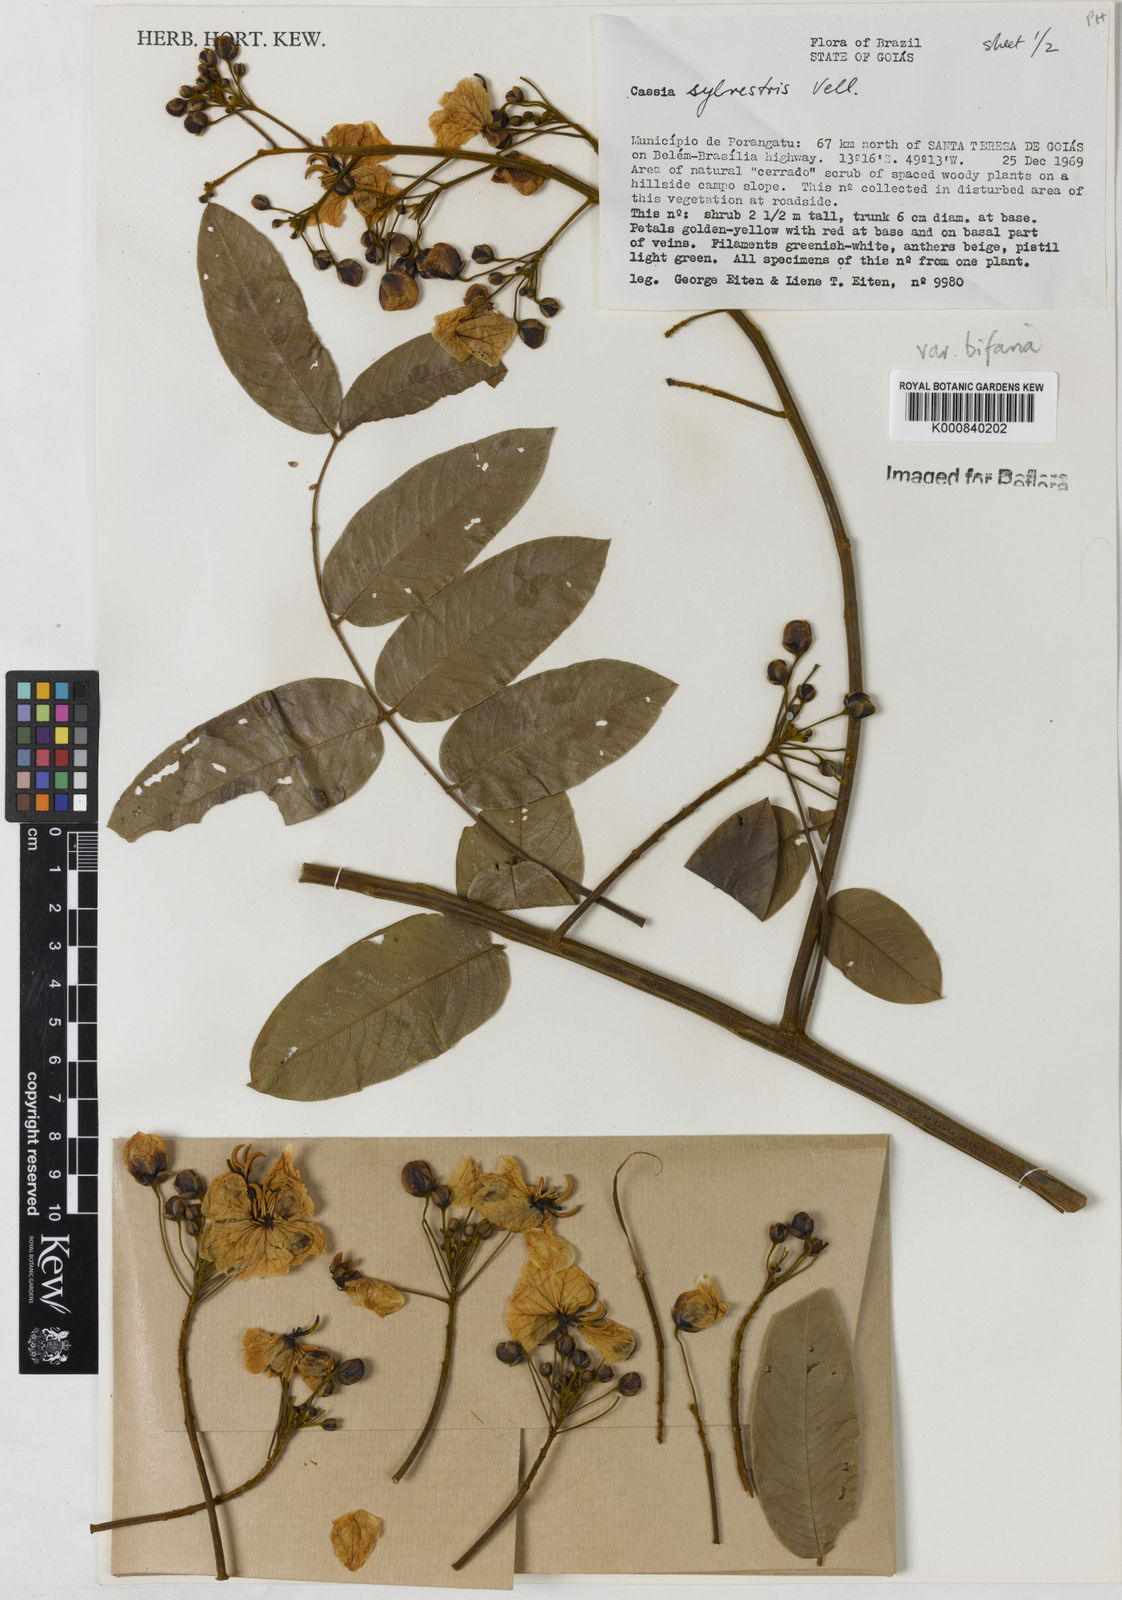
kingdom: Plantae
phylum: Tracheophyta
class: Magnoliopsida
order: Fabales
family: Fabaceae
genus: Senna
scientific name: Senna silvestris
